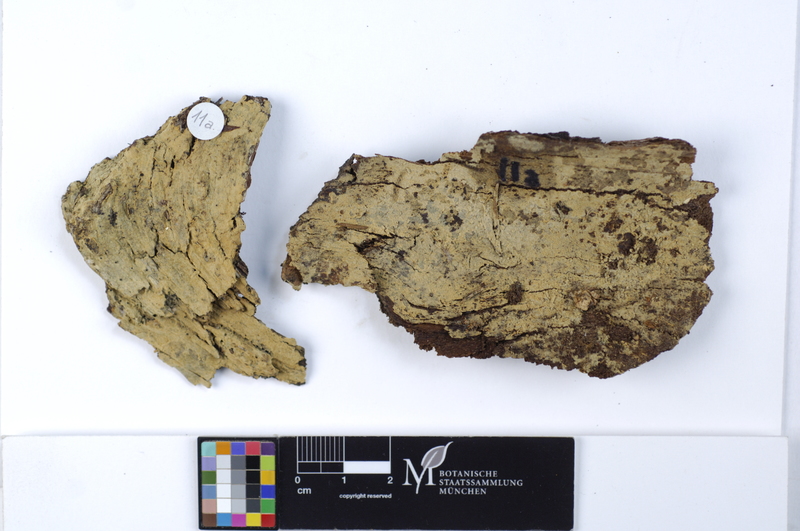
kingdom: Fungi
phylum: Basidiomycota
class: Agaricomycetes
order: Cantharellales
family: Botryobasidiaceae
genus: Botryobasidium
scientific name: Botryobasidium vagum
